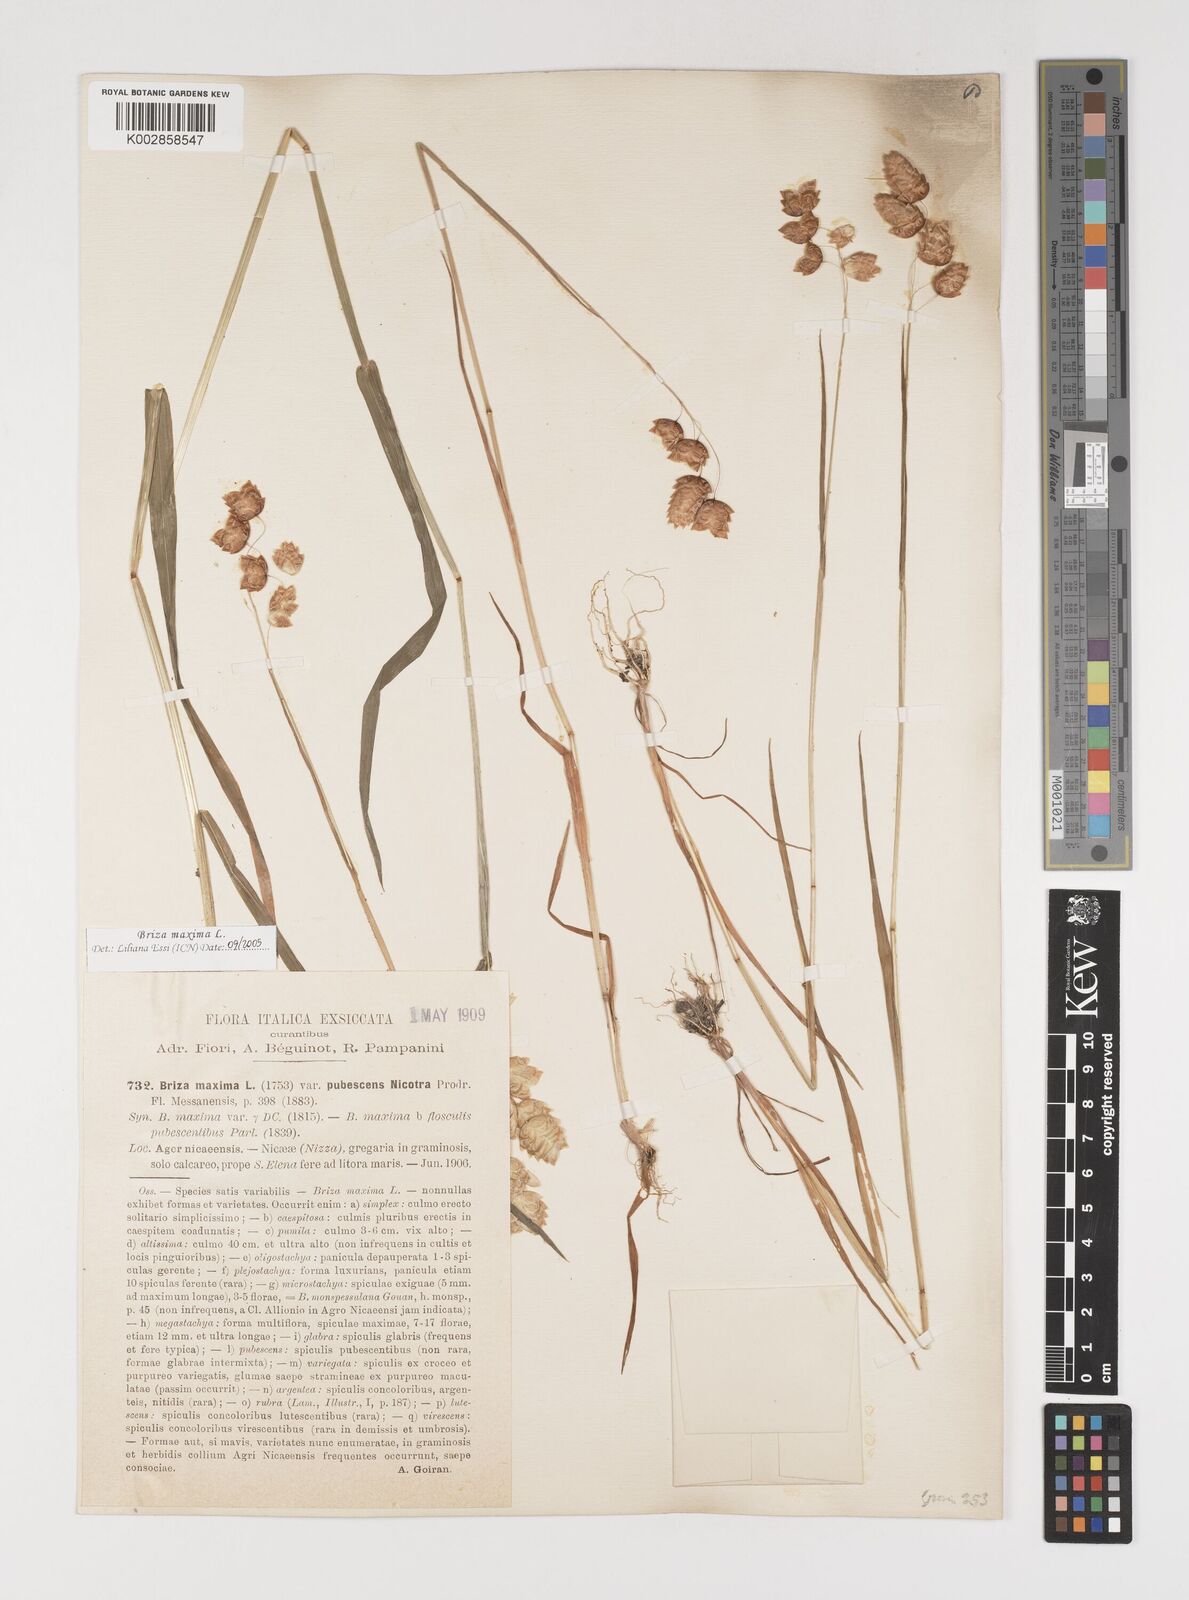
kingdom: Plantae
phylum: Tracheophyta
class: Liliopsida
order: Poales
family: Poaceae
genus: Briza
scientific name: Briza maxima
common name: Big quakinggrass
